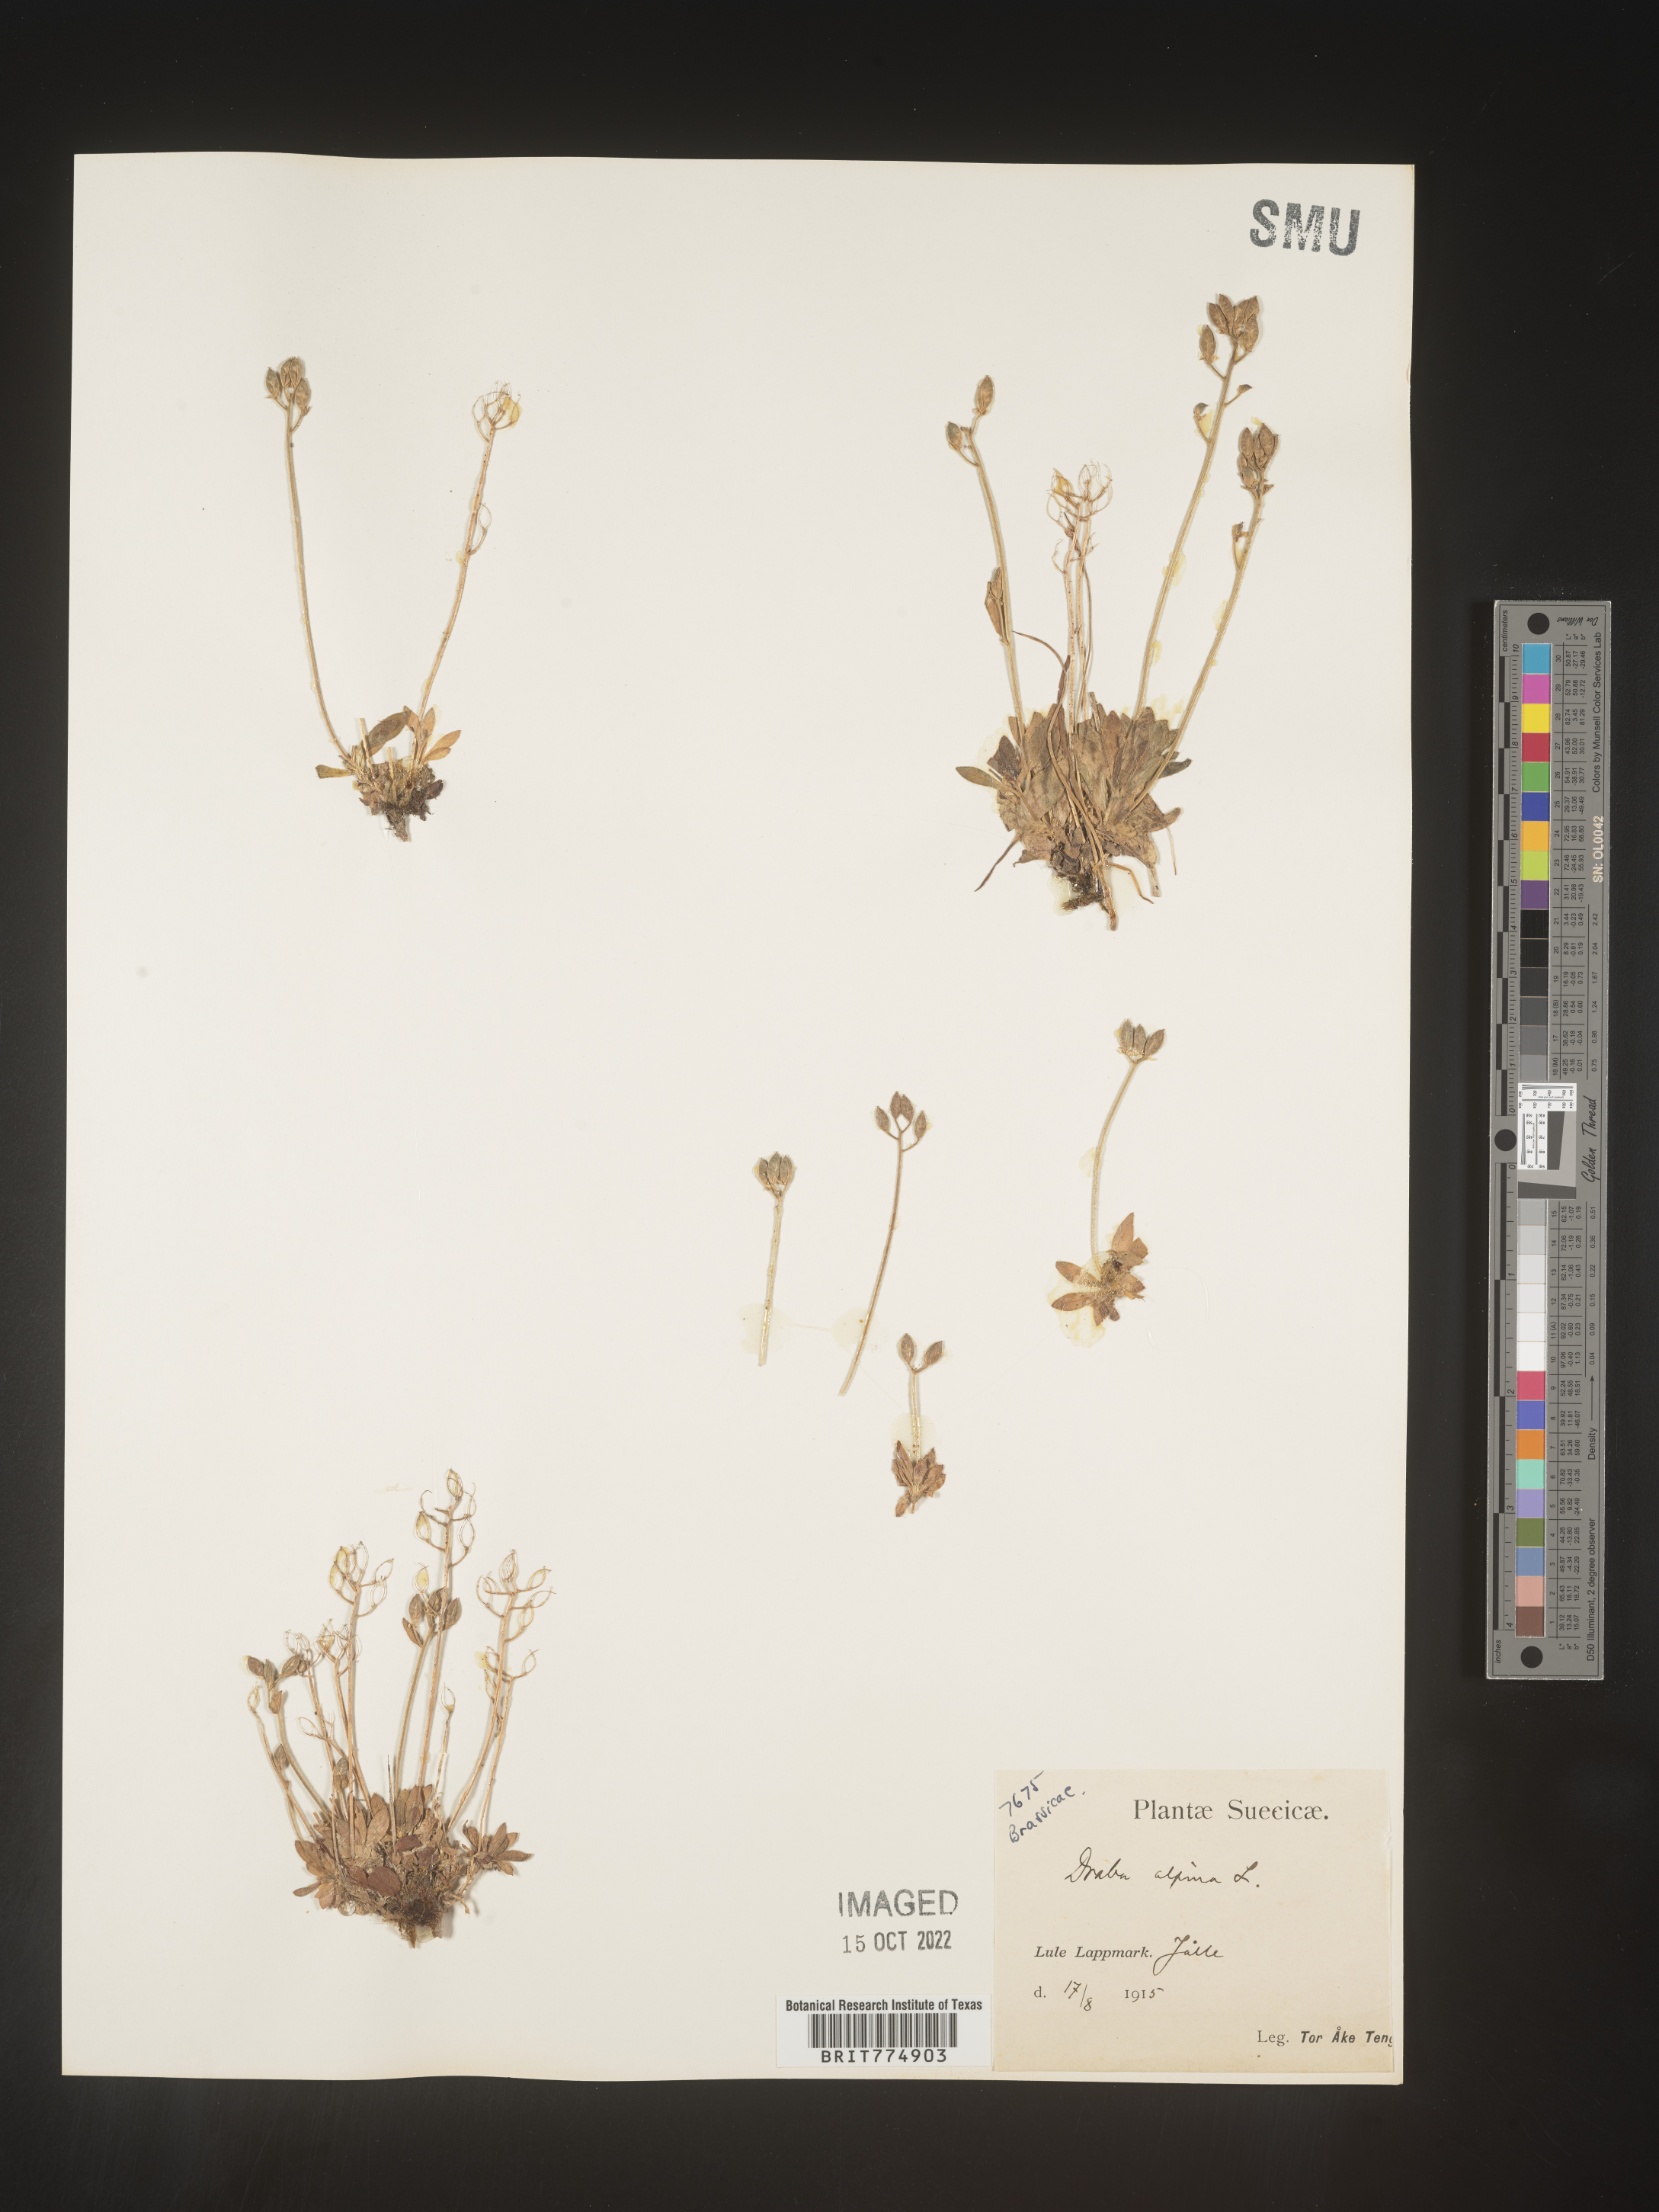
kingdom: Plantae
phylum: Tracheophyta
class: Magnoliopsida
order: Brassicales
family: Brassicaceae
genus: Draba
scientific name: Draba
